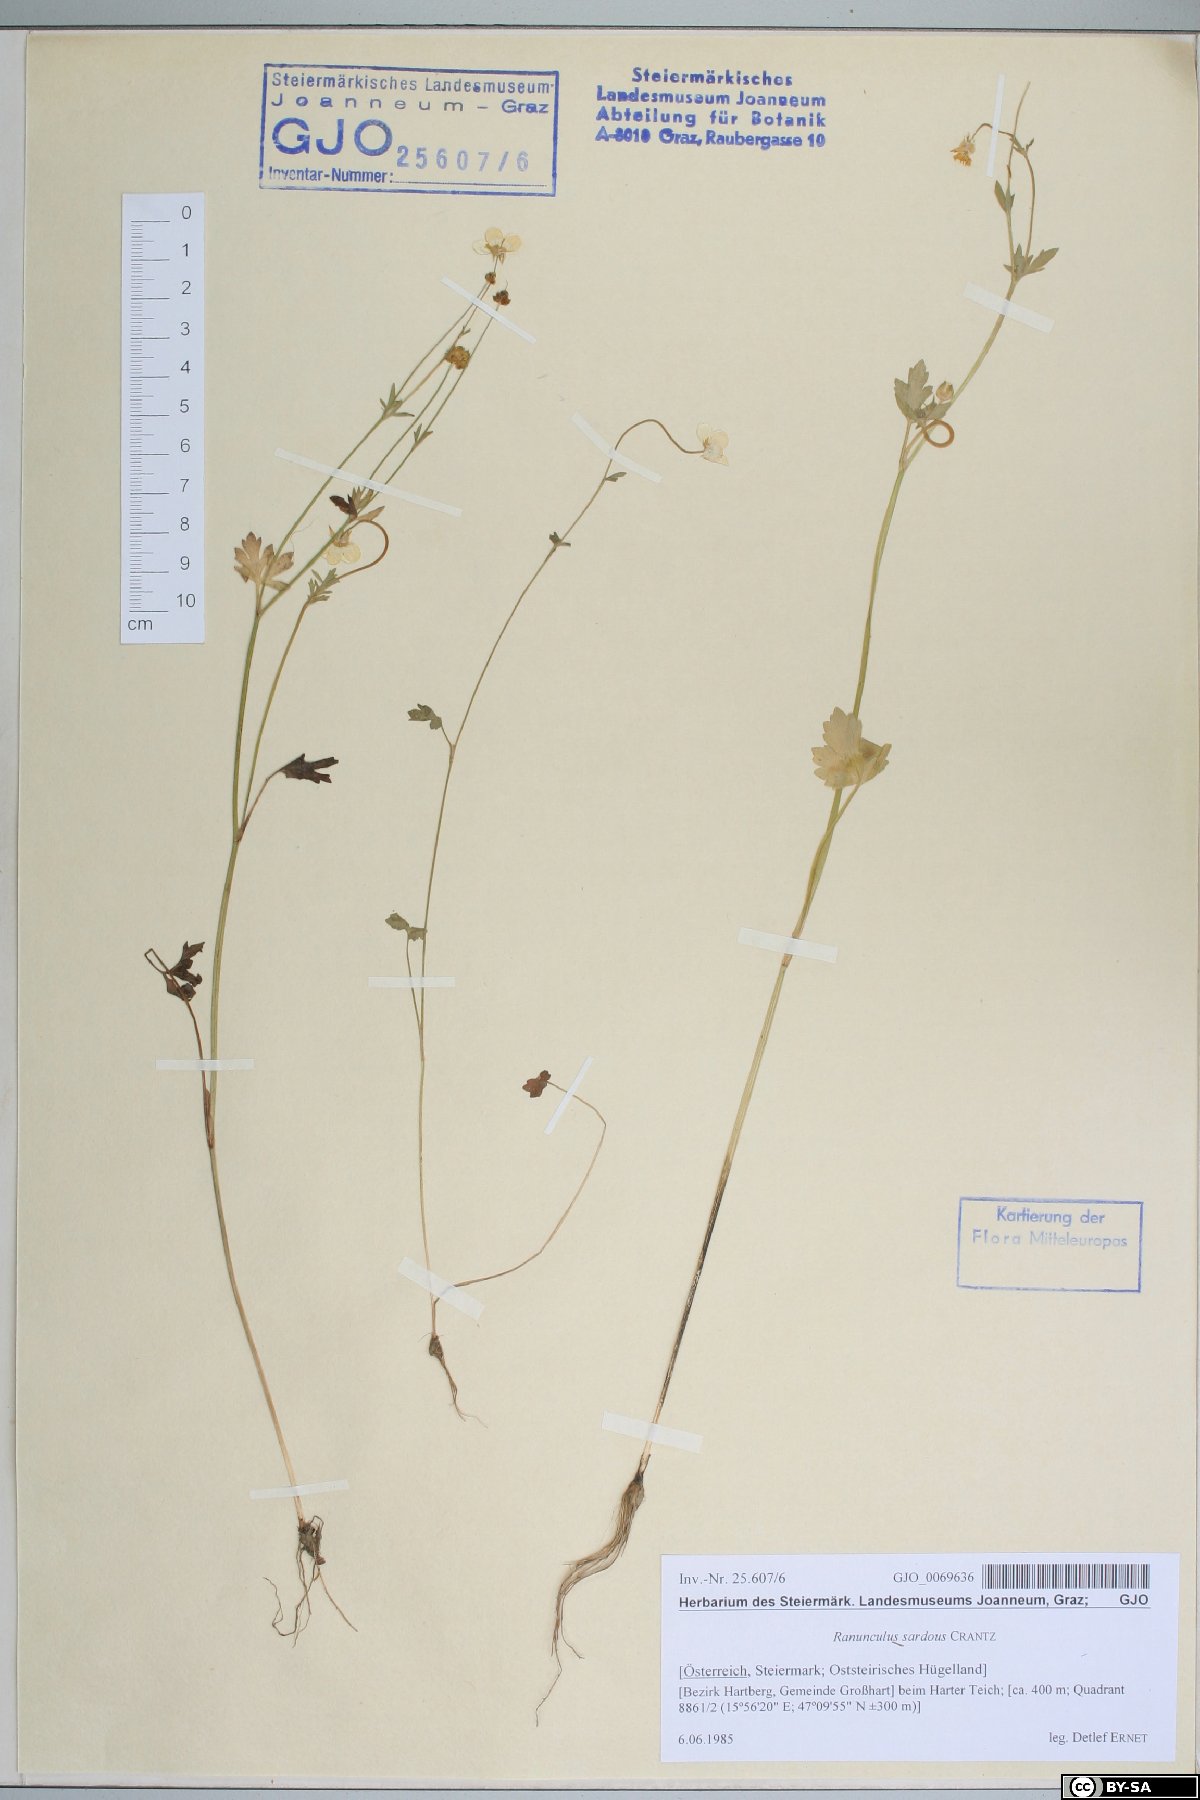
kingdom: Plantae
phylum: Tracheophyta
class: Magnoliopsida
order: Ranunculales
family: Ranunculaceae
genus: Ranunculus
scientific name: Ranunculus sardous
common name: Hairy buttercup
